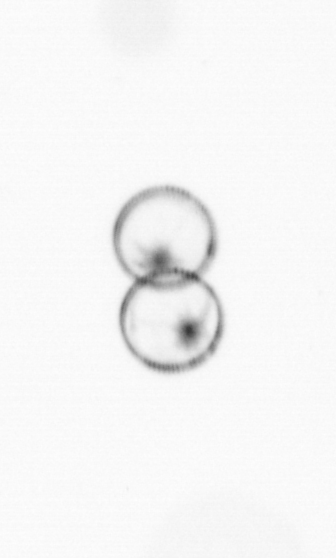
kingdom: Chromista
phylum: Myzozoa
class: Dinophyceae
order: Noctilucales
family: Noctilucaceae
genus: Noctiluca
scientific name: Noctiluca scintillans
